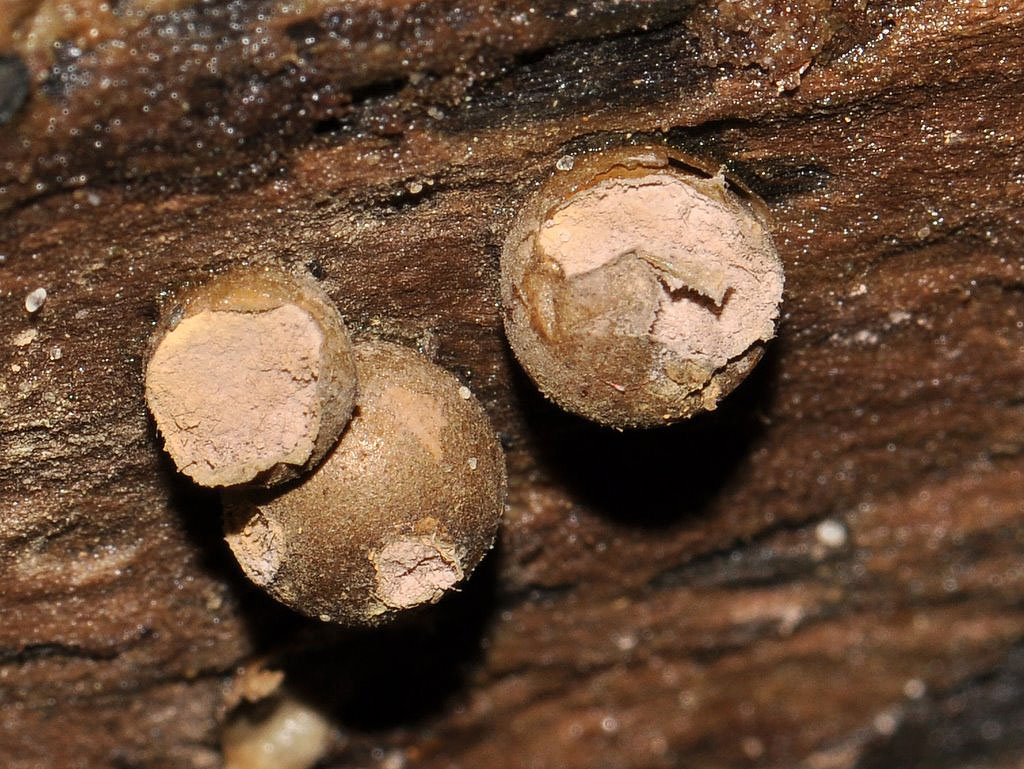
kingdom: Protozoa
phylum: Mycetozoa
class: Myxomycetes
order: Cribrariales
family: Tubiferaceae
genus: Lycogala
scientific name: Lycogala epidendrum
